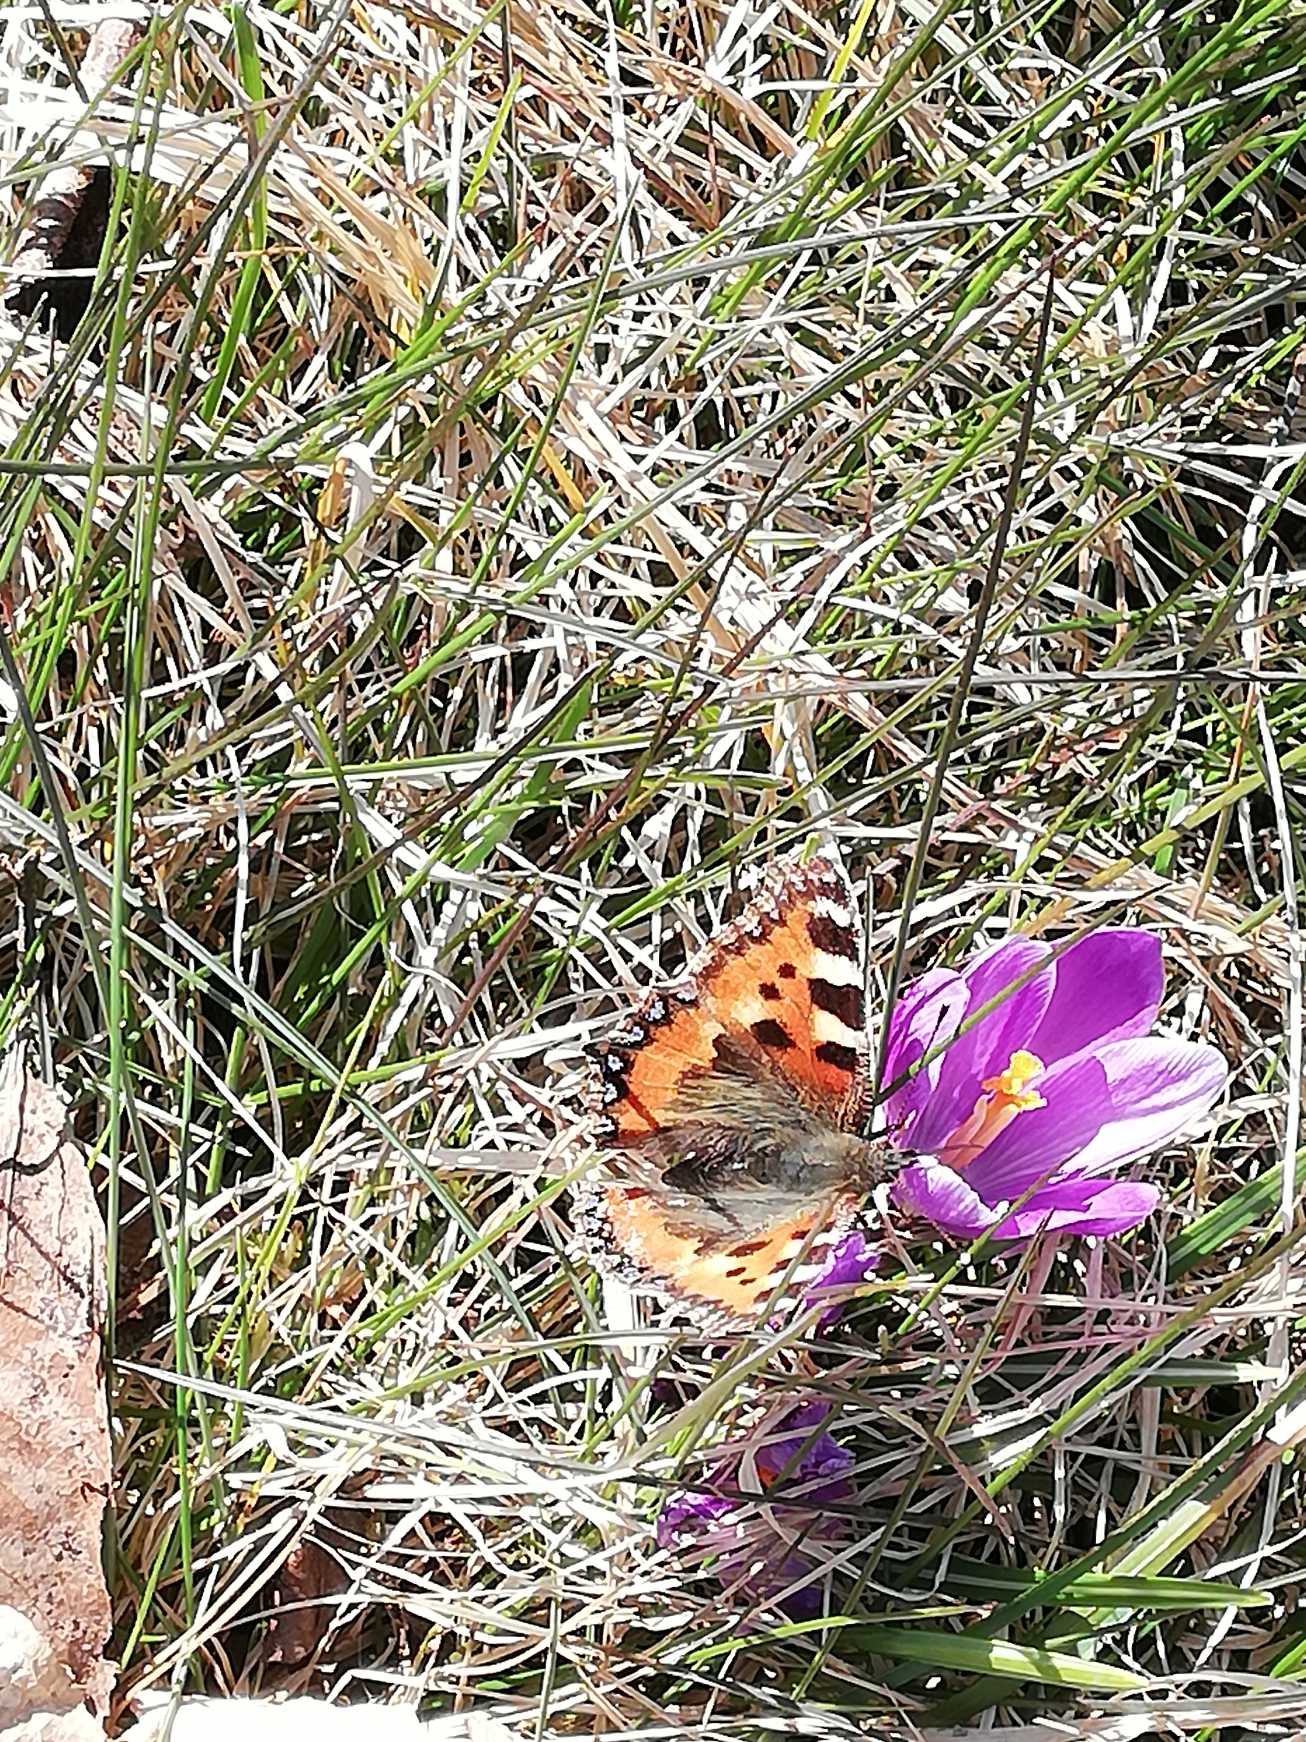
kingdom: Animalia
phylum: Arthropoda
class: Insecta
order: Lepidoptera
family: Nymphalidae
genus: Aglais
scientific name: Aglais urticae
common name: Nældens takvinge
